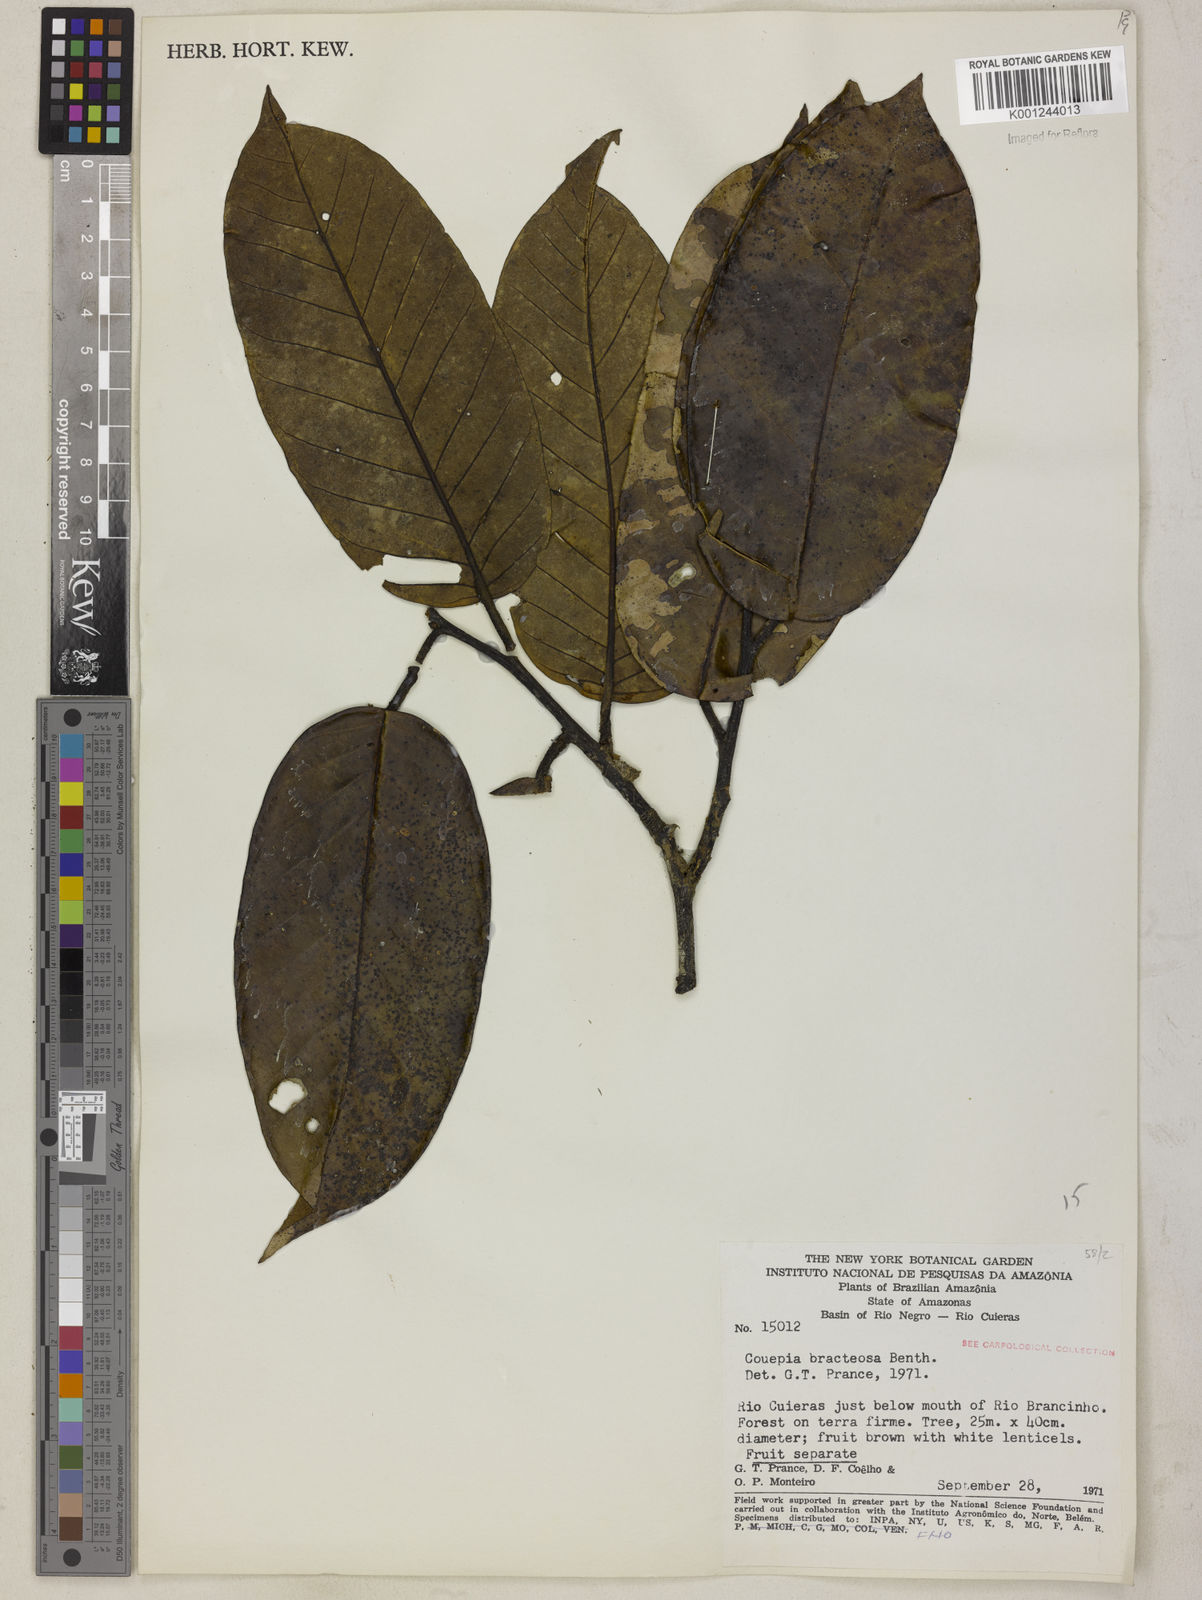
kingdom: Plantae
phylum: Tracheophyta
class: Magnoliopsida
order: Malpighiales
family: Chrysobalanaceae
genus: Couepia
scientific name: Couepia bracteosa
